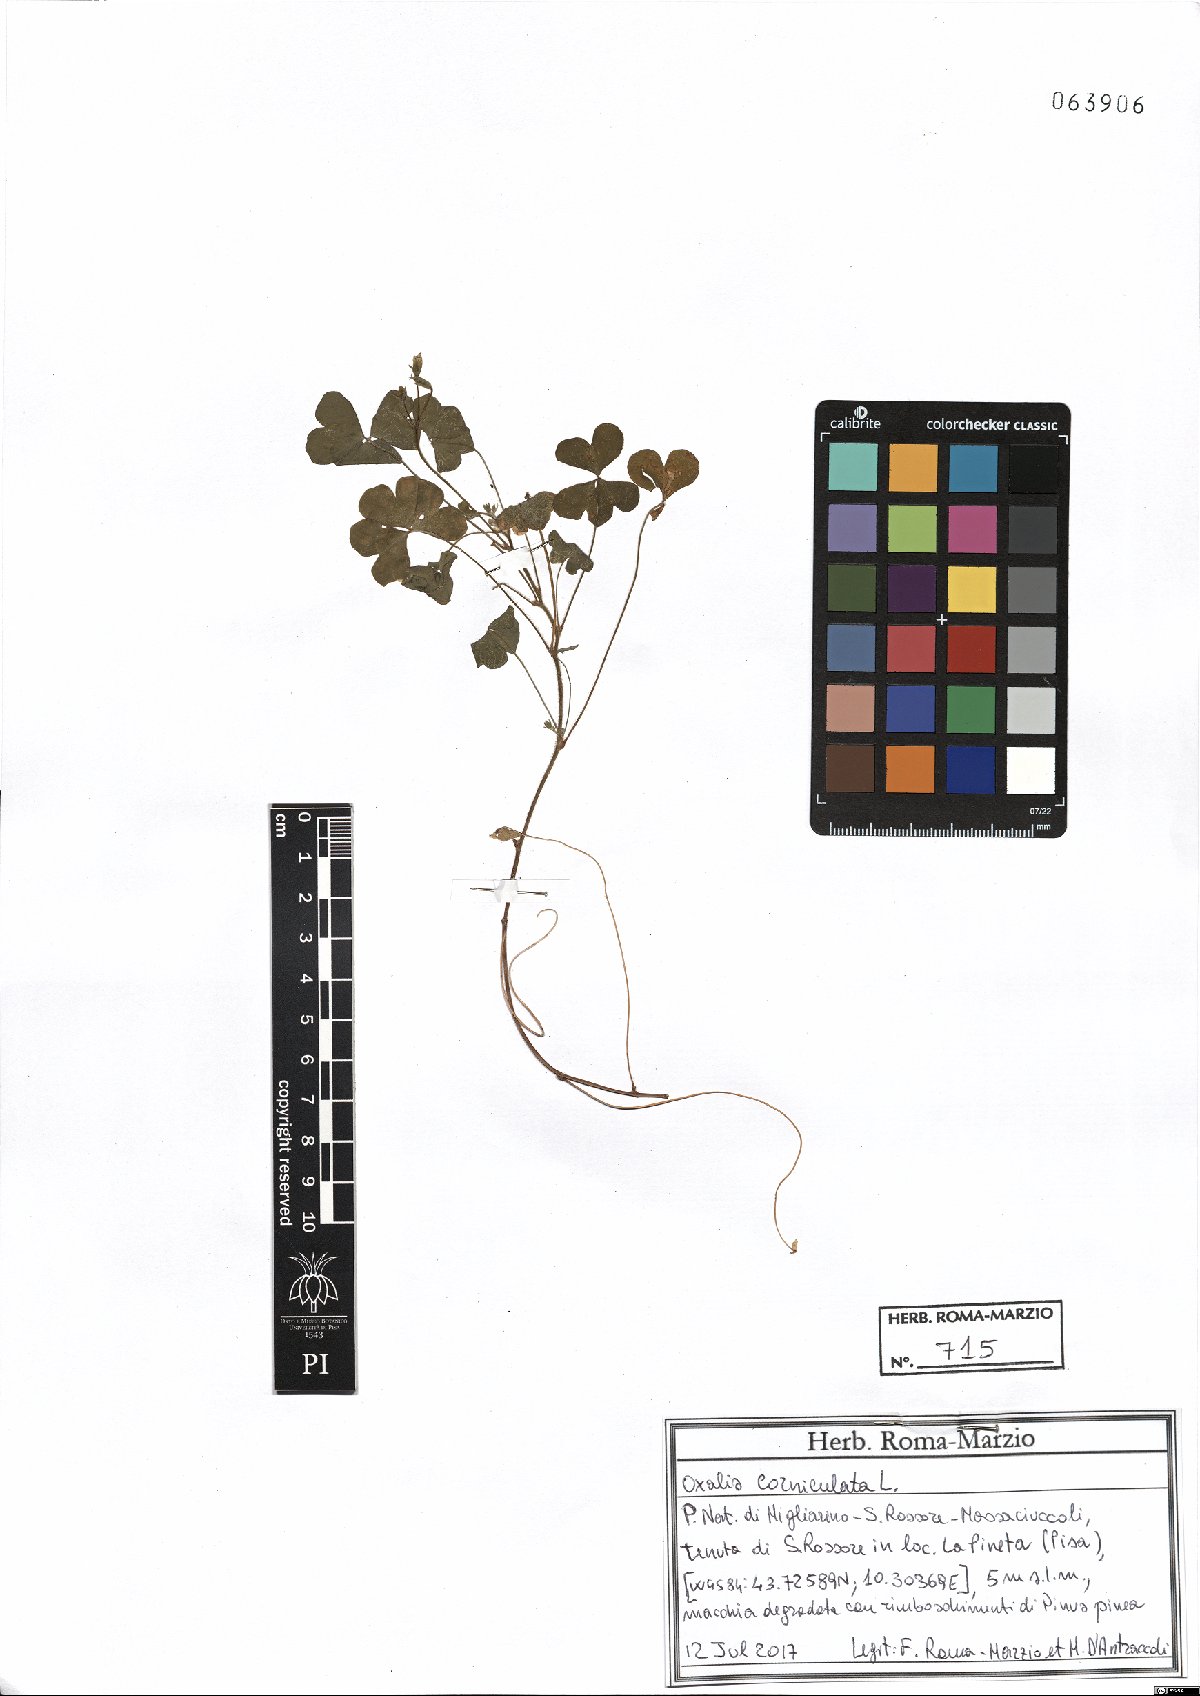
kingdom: Plantae
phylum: Tracheophyta
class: Magnoliopsida
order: Oxalidales
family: Oxalidaceae
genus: Oxalis
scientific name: Oxalis corniculata
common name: Procumbent yellow-sorrel
